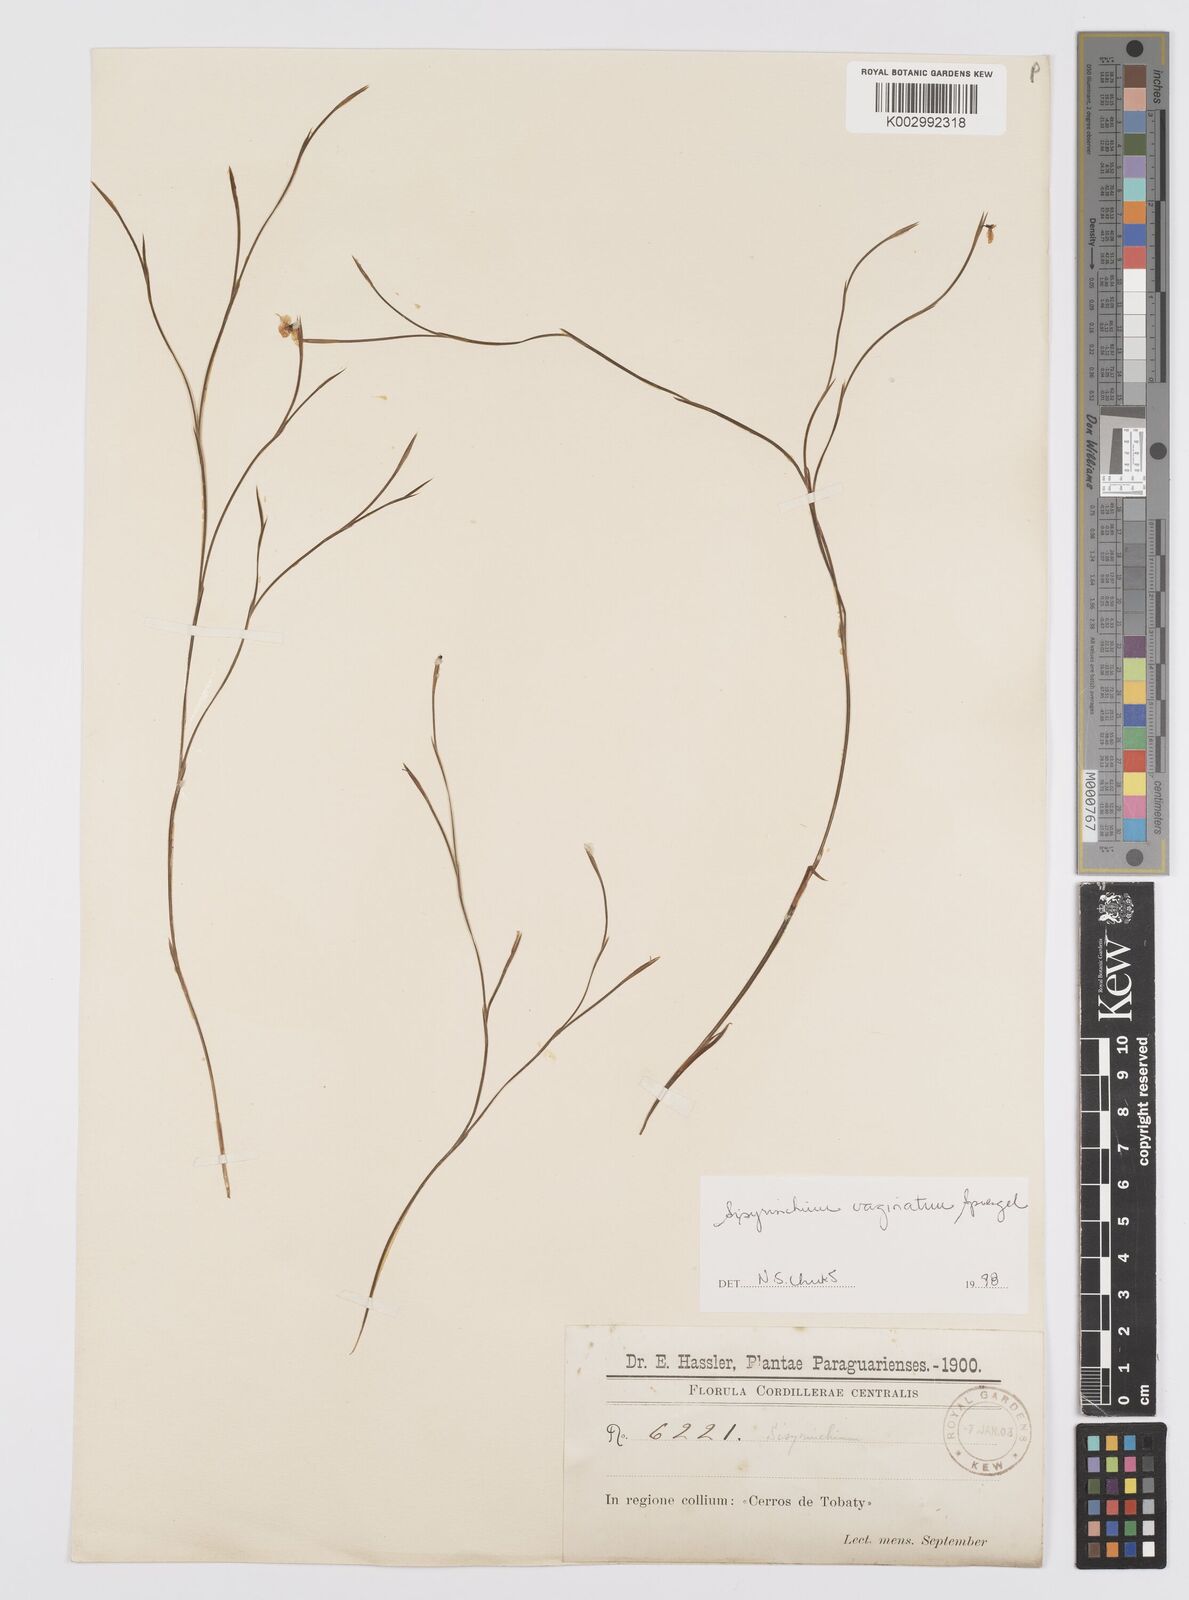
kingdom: Plantae
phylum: Tracheophyta
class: Liliopsida
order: Asparagales
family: Iridaceae
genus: Sisyrinchium
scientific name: Sisyrinchium vaginatum
